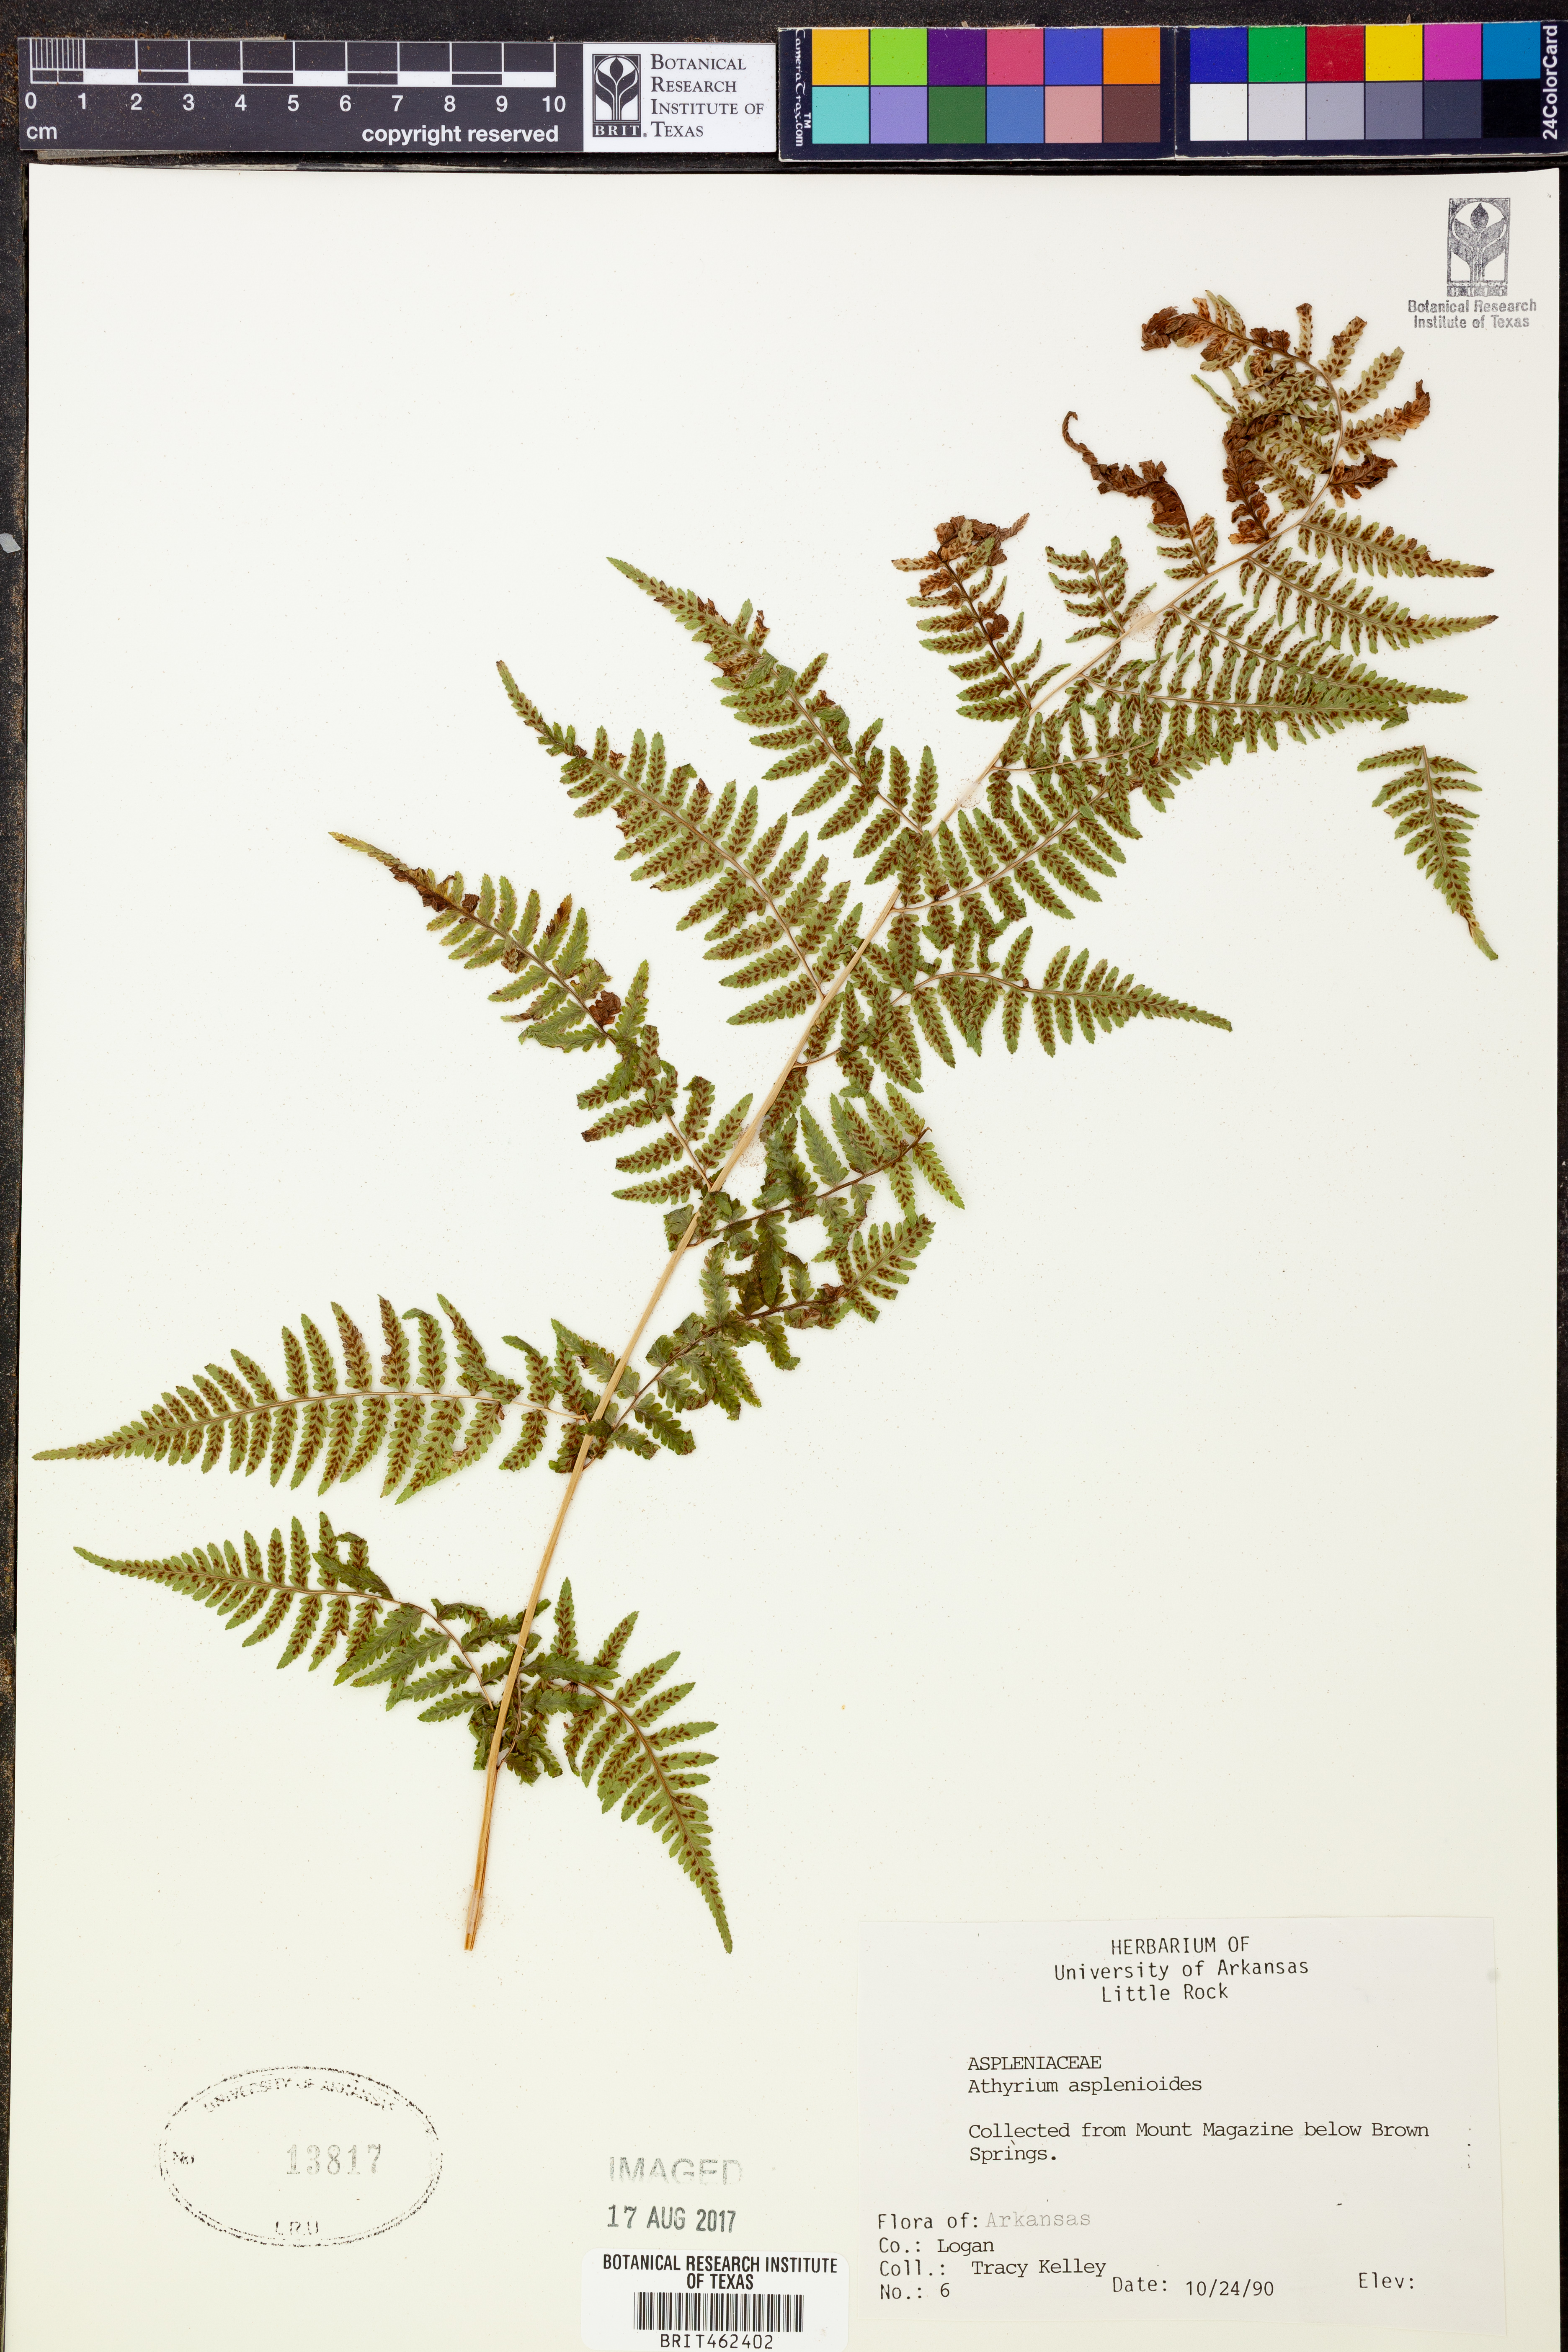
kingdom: Plantae
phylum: Tracheophyta
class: Polypodiopsida
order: Polypodiales
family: Athyriaceae
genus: Athyrium
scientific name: Athyrium asplenioides
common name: Southern lady fern
